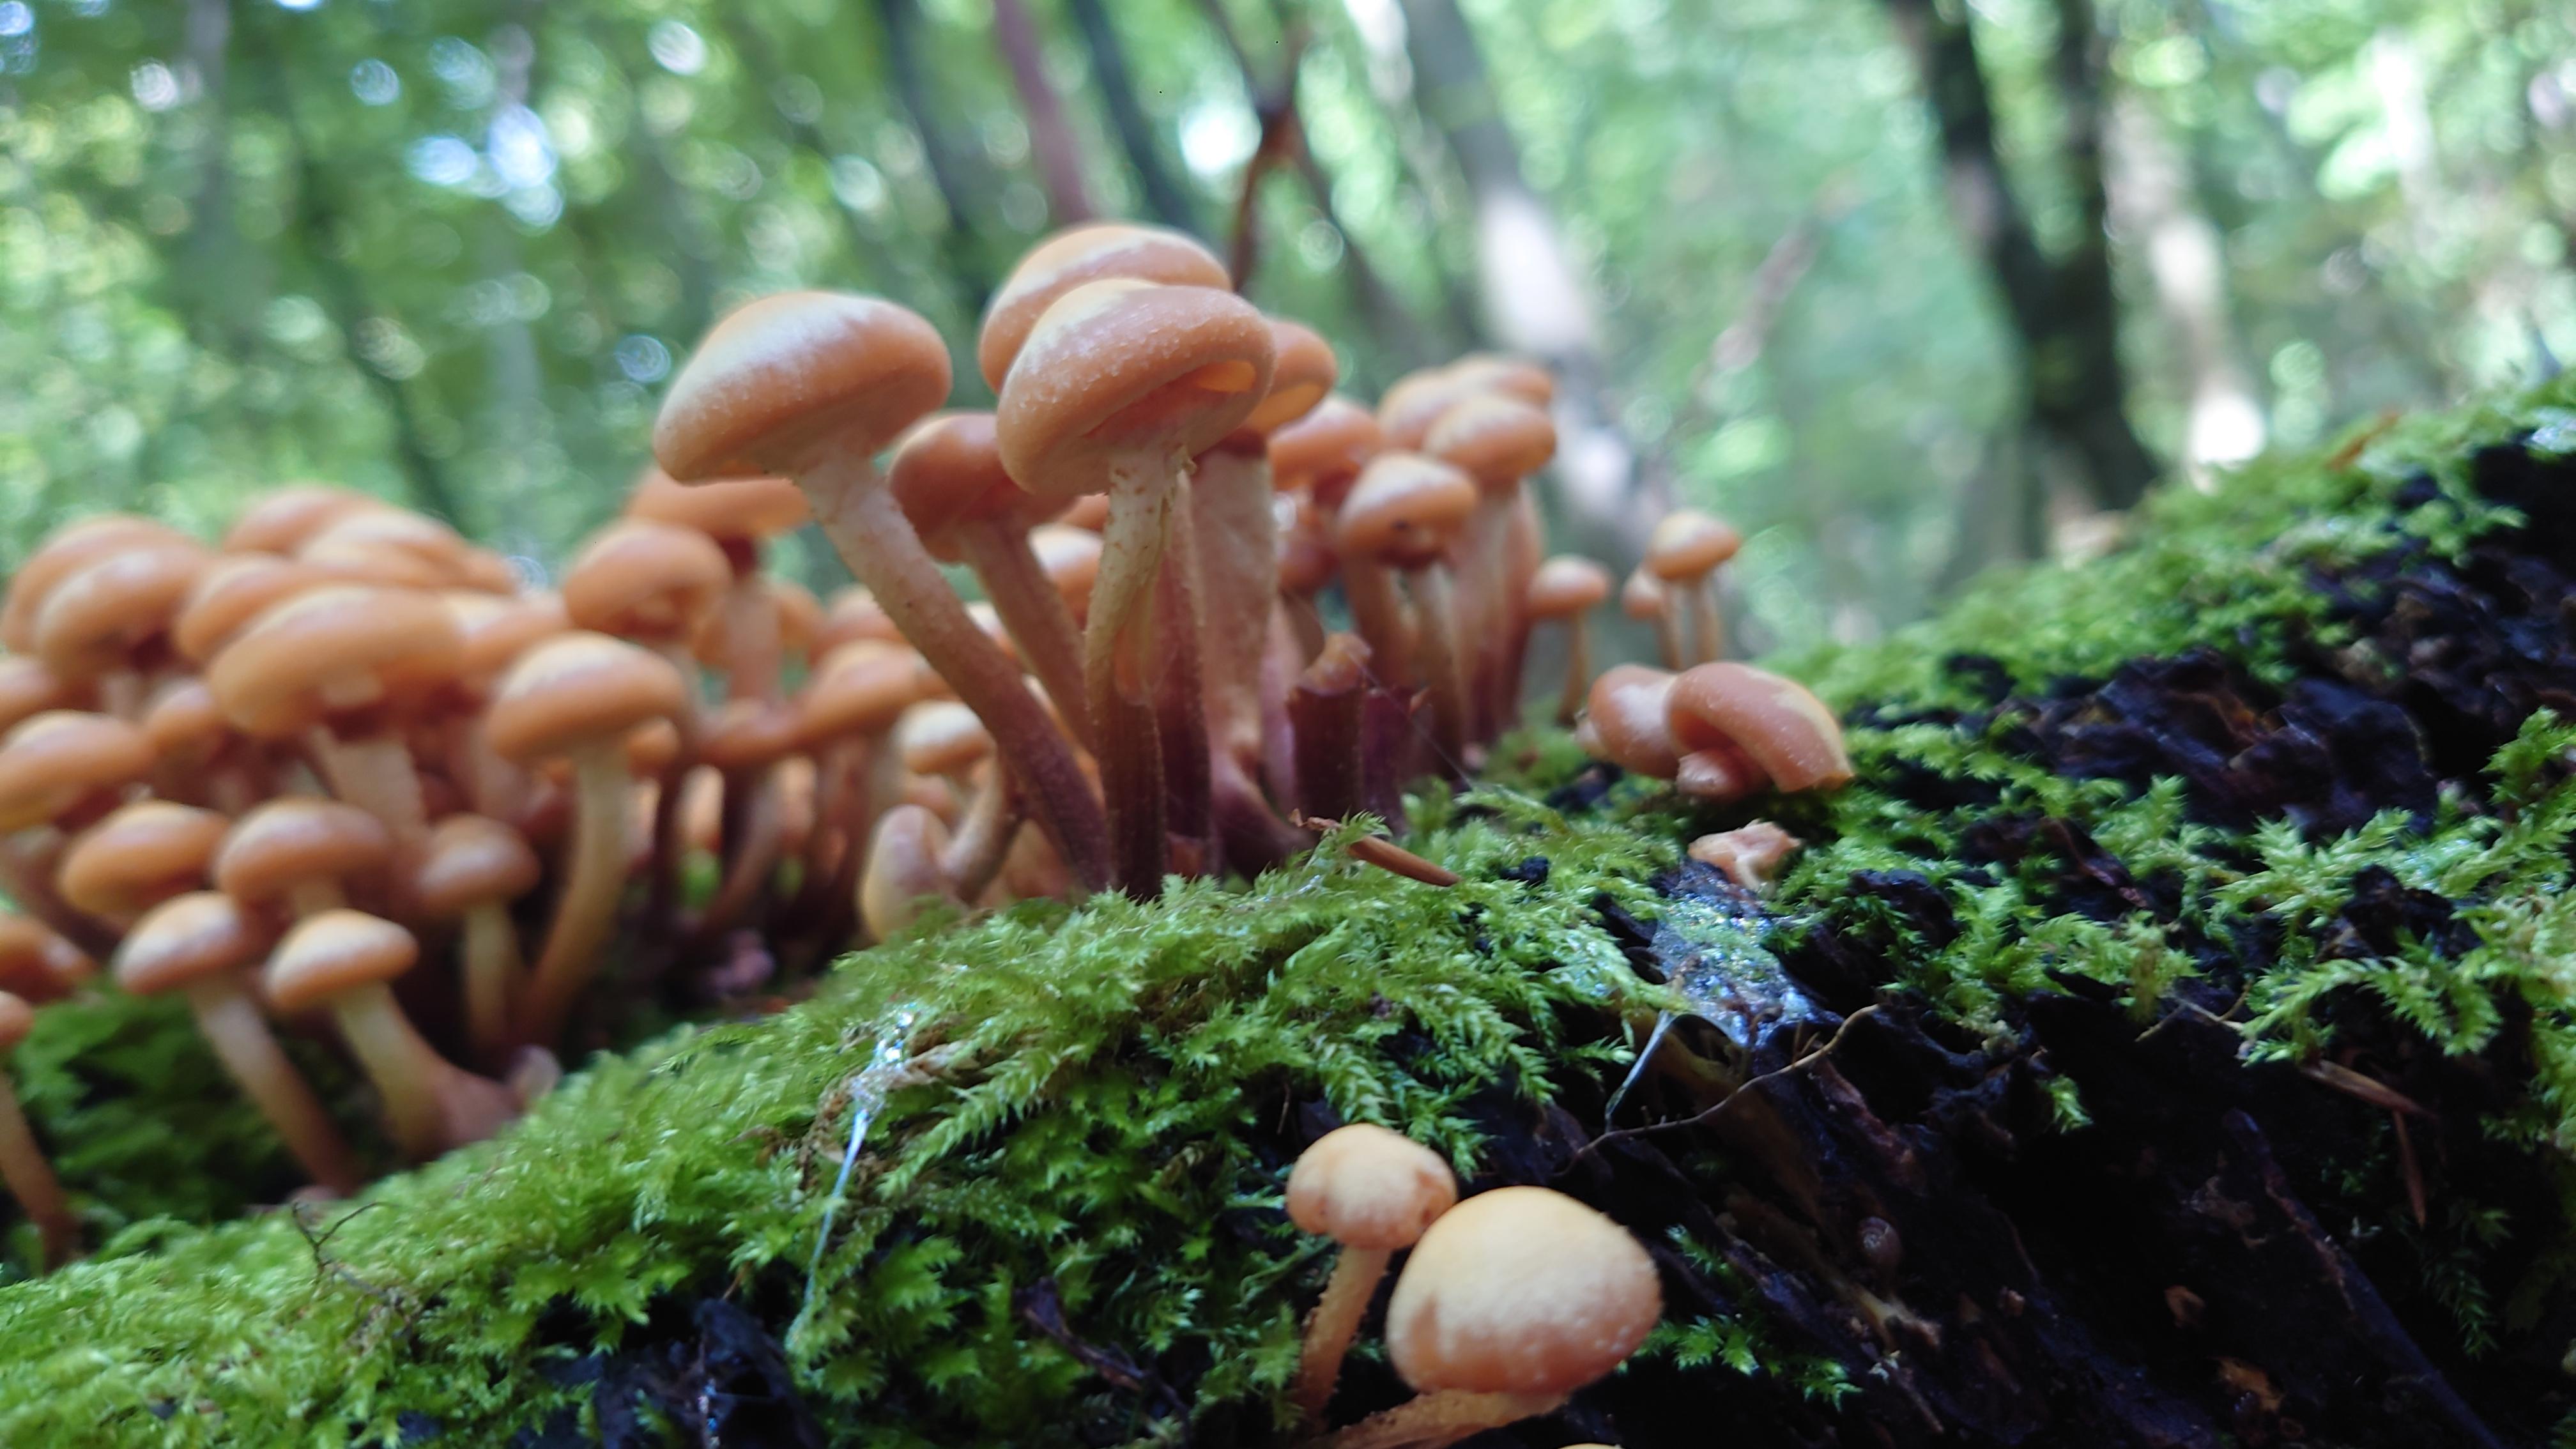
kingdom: Fungi
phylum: Basidiomycota
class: Agaricomycetes
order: Agaricales
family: Strophariaceae
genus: Kuehneromyces
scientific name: Kuehneromyces mutabilis
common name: foranderlig skælhat
